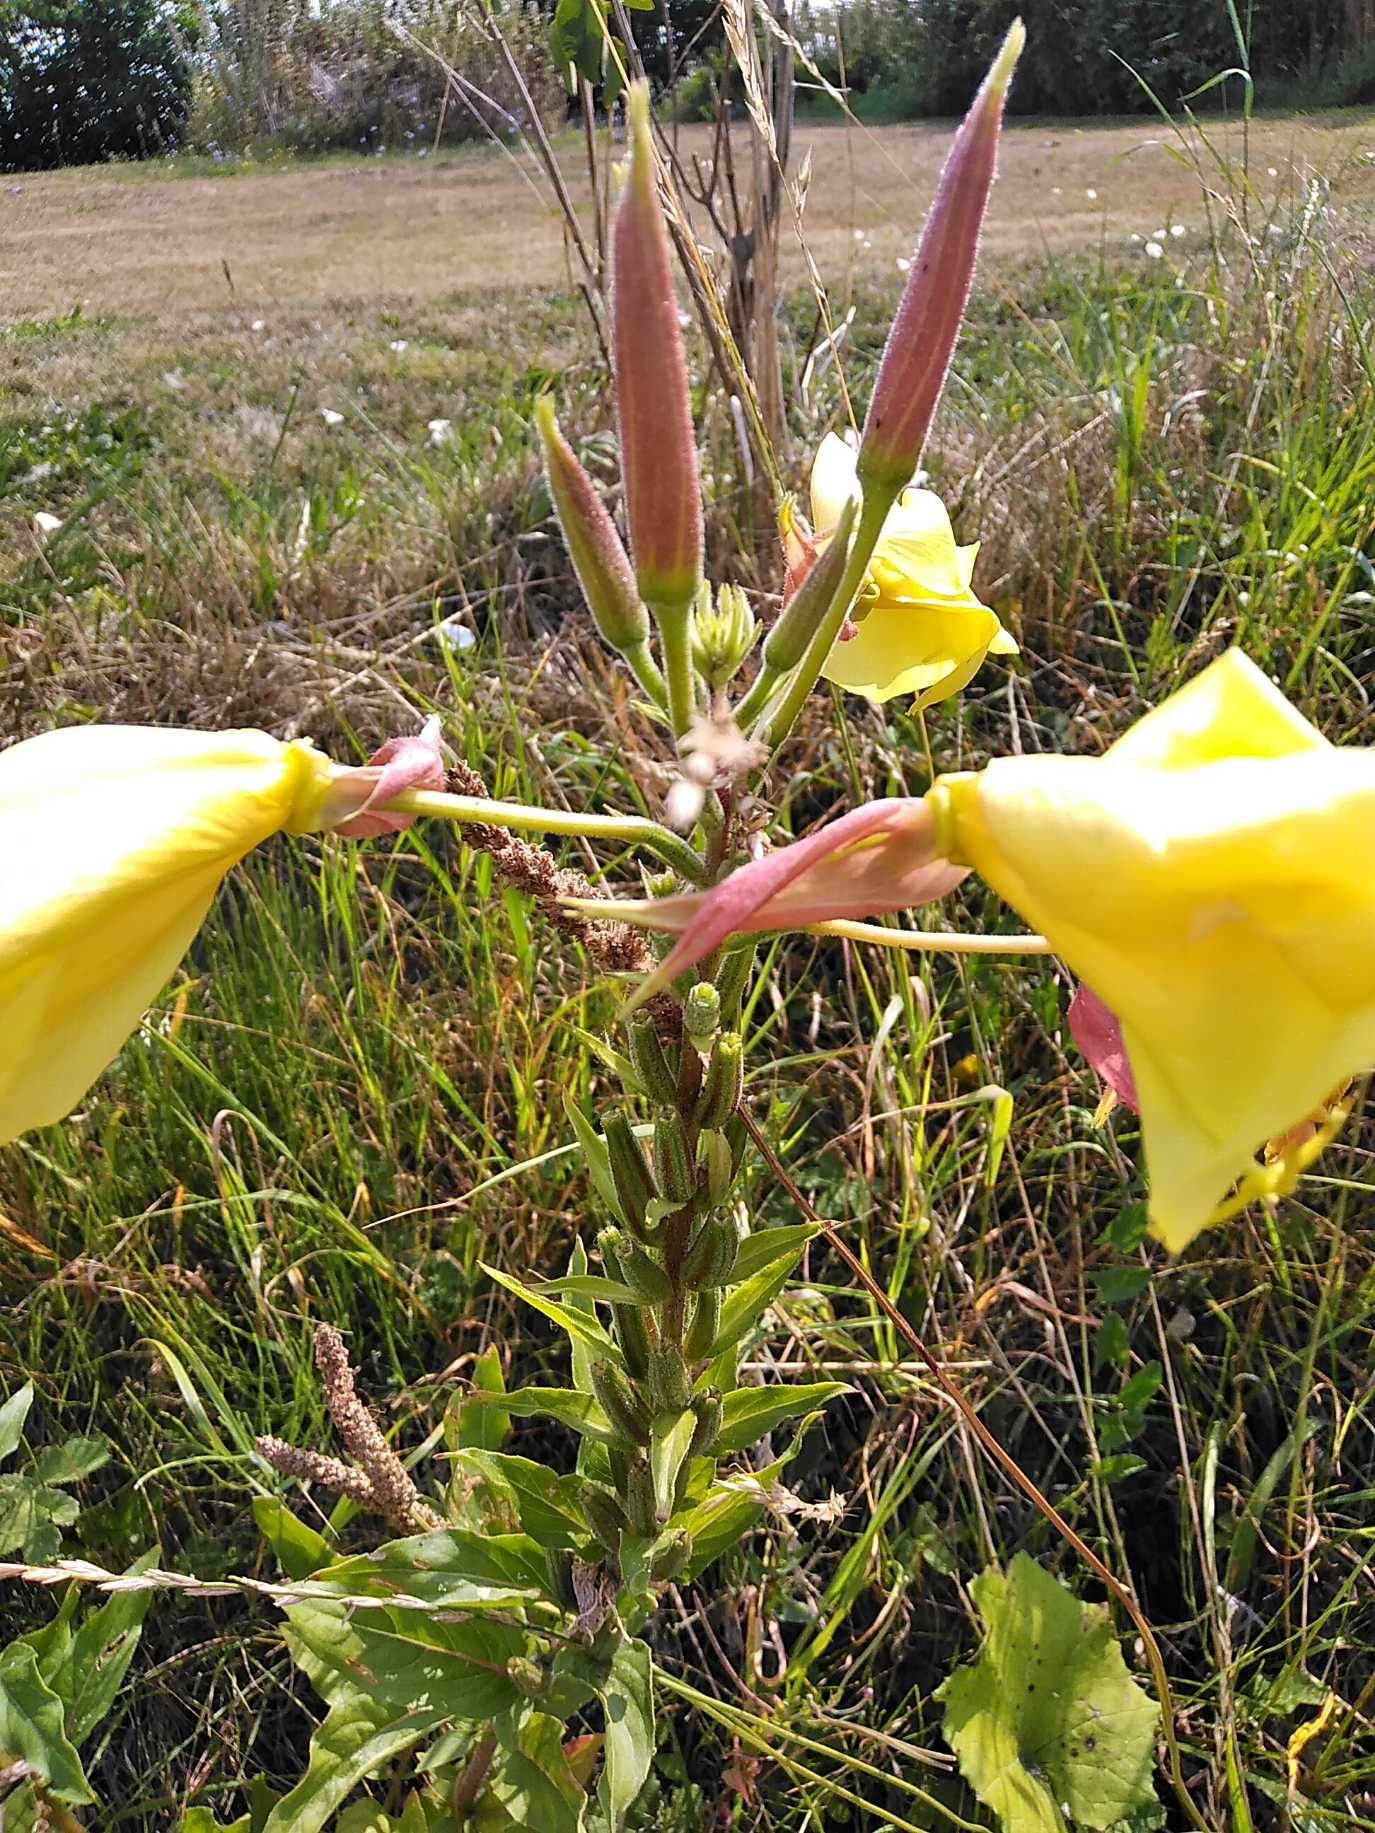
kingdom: Plantae
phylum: Tracheophyta
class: Magnoliopsida
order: Myrtales
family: Onagraceae
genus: Oenothera
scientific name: Oenothera glazioviana
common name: Kæmpe-natlys
